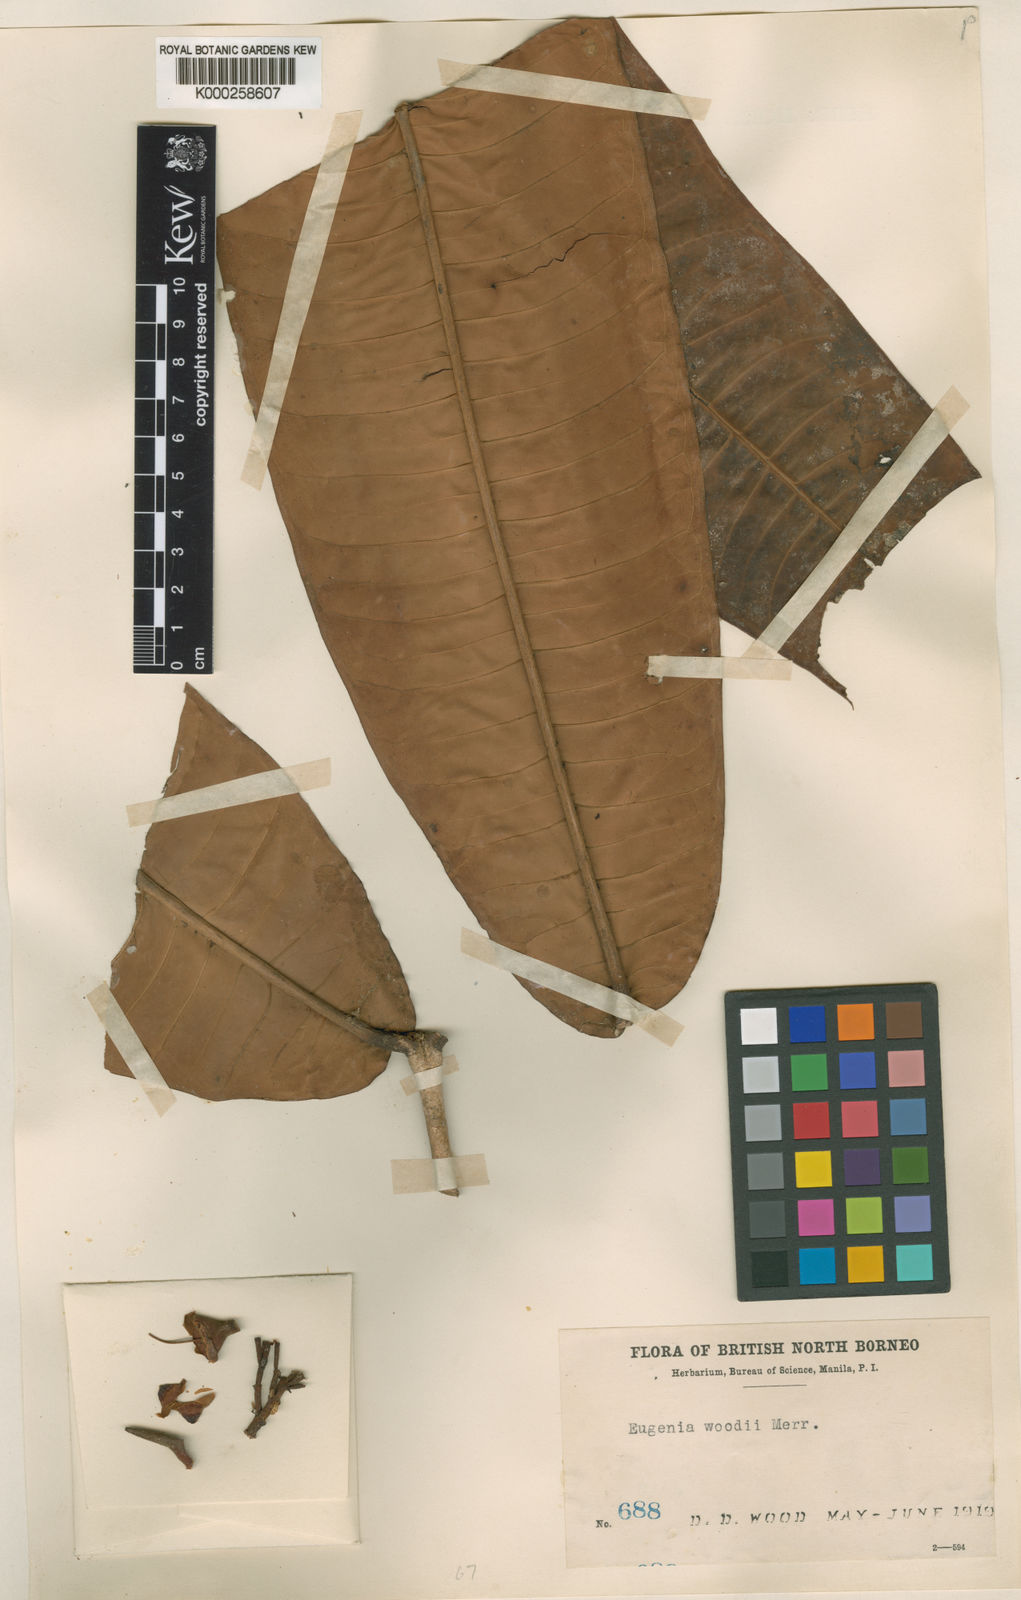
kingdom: Plantae
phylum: Tracheophyta
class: Magnoliopsida
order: Myrtales
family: Myrtaceae
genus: Syzygium
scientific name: Syzygium creaghii
